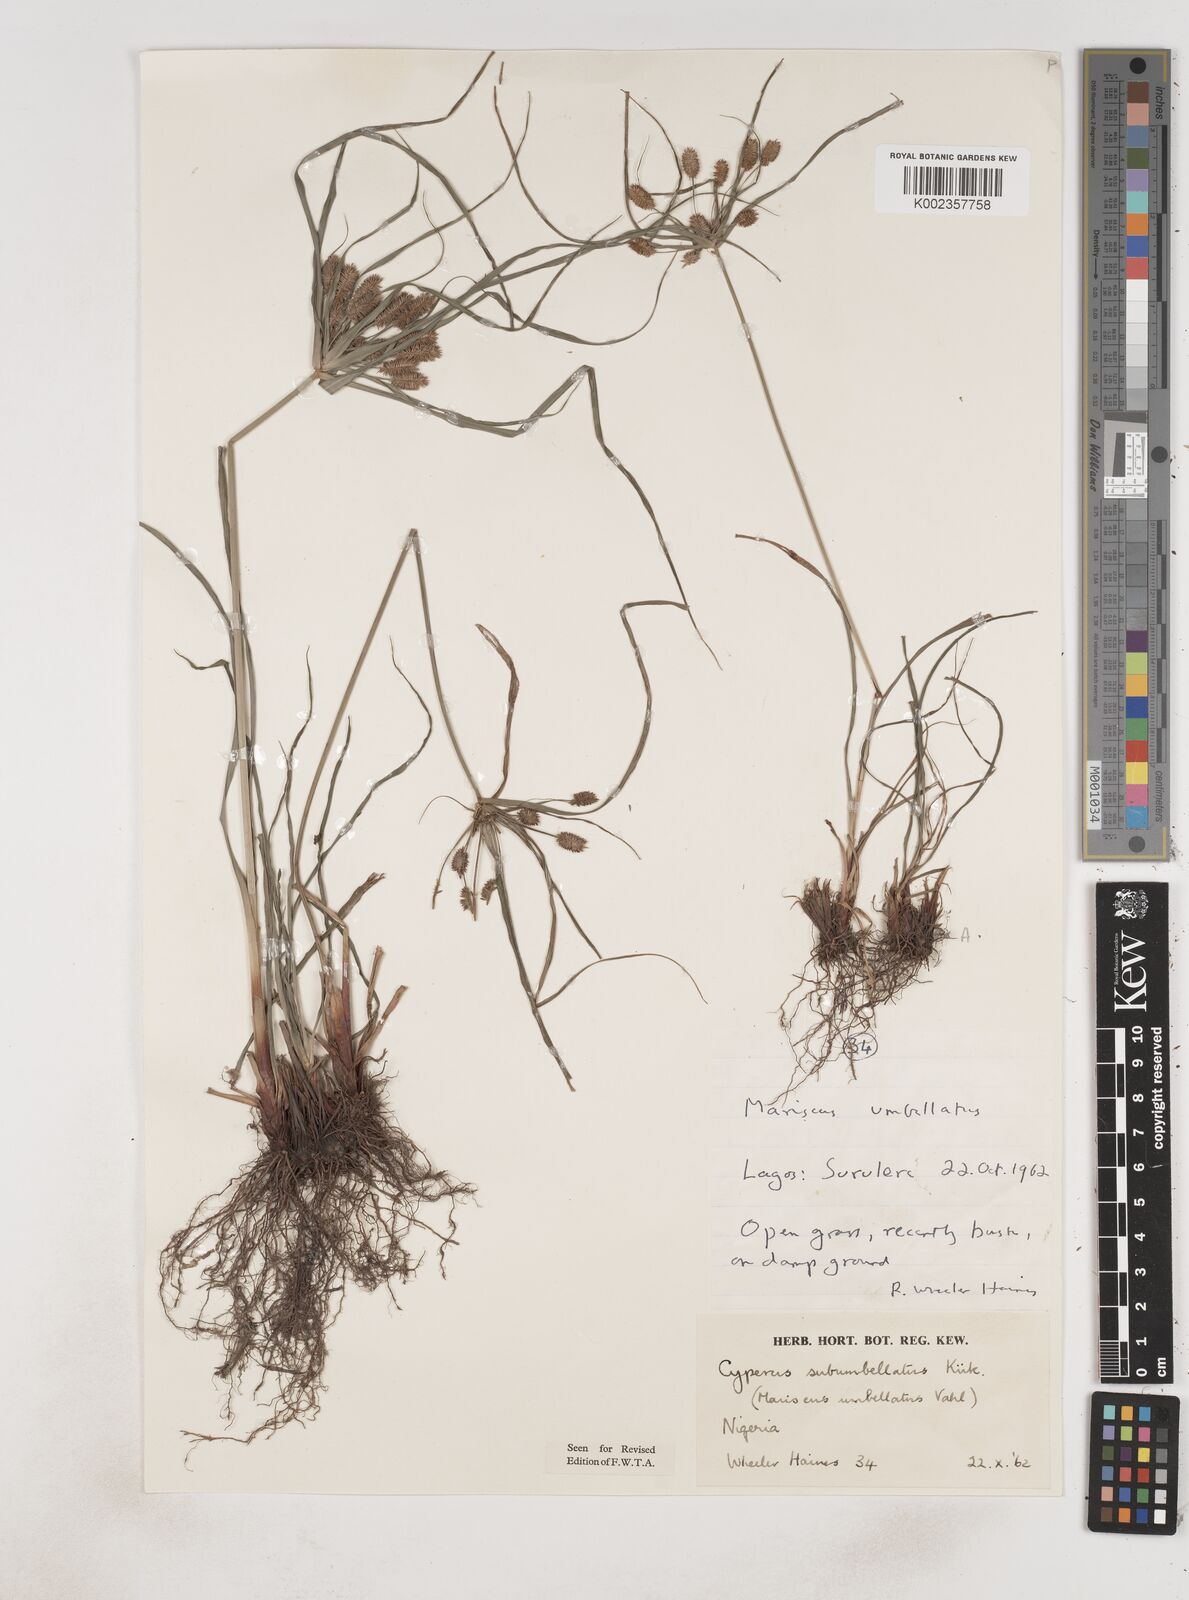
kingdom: Plantae
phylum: Tracheophyta
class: Liliopsida
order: Poales
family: Cyperaceae
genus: Cyperus
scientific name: Cyperus sublimis
